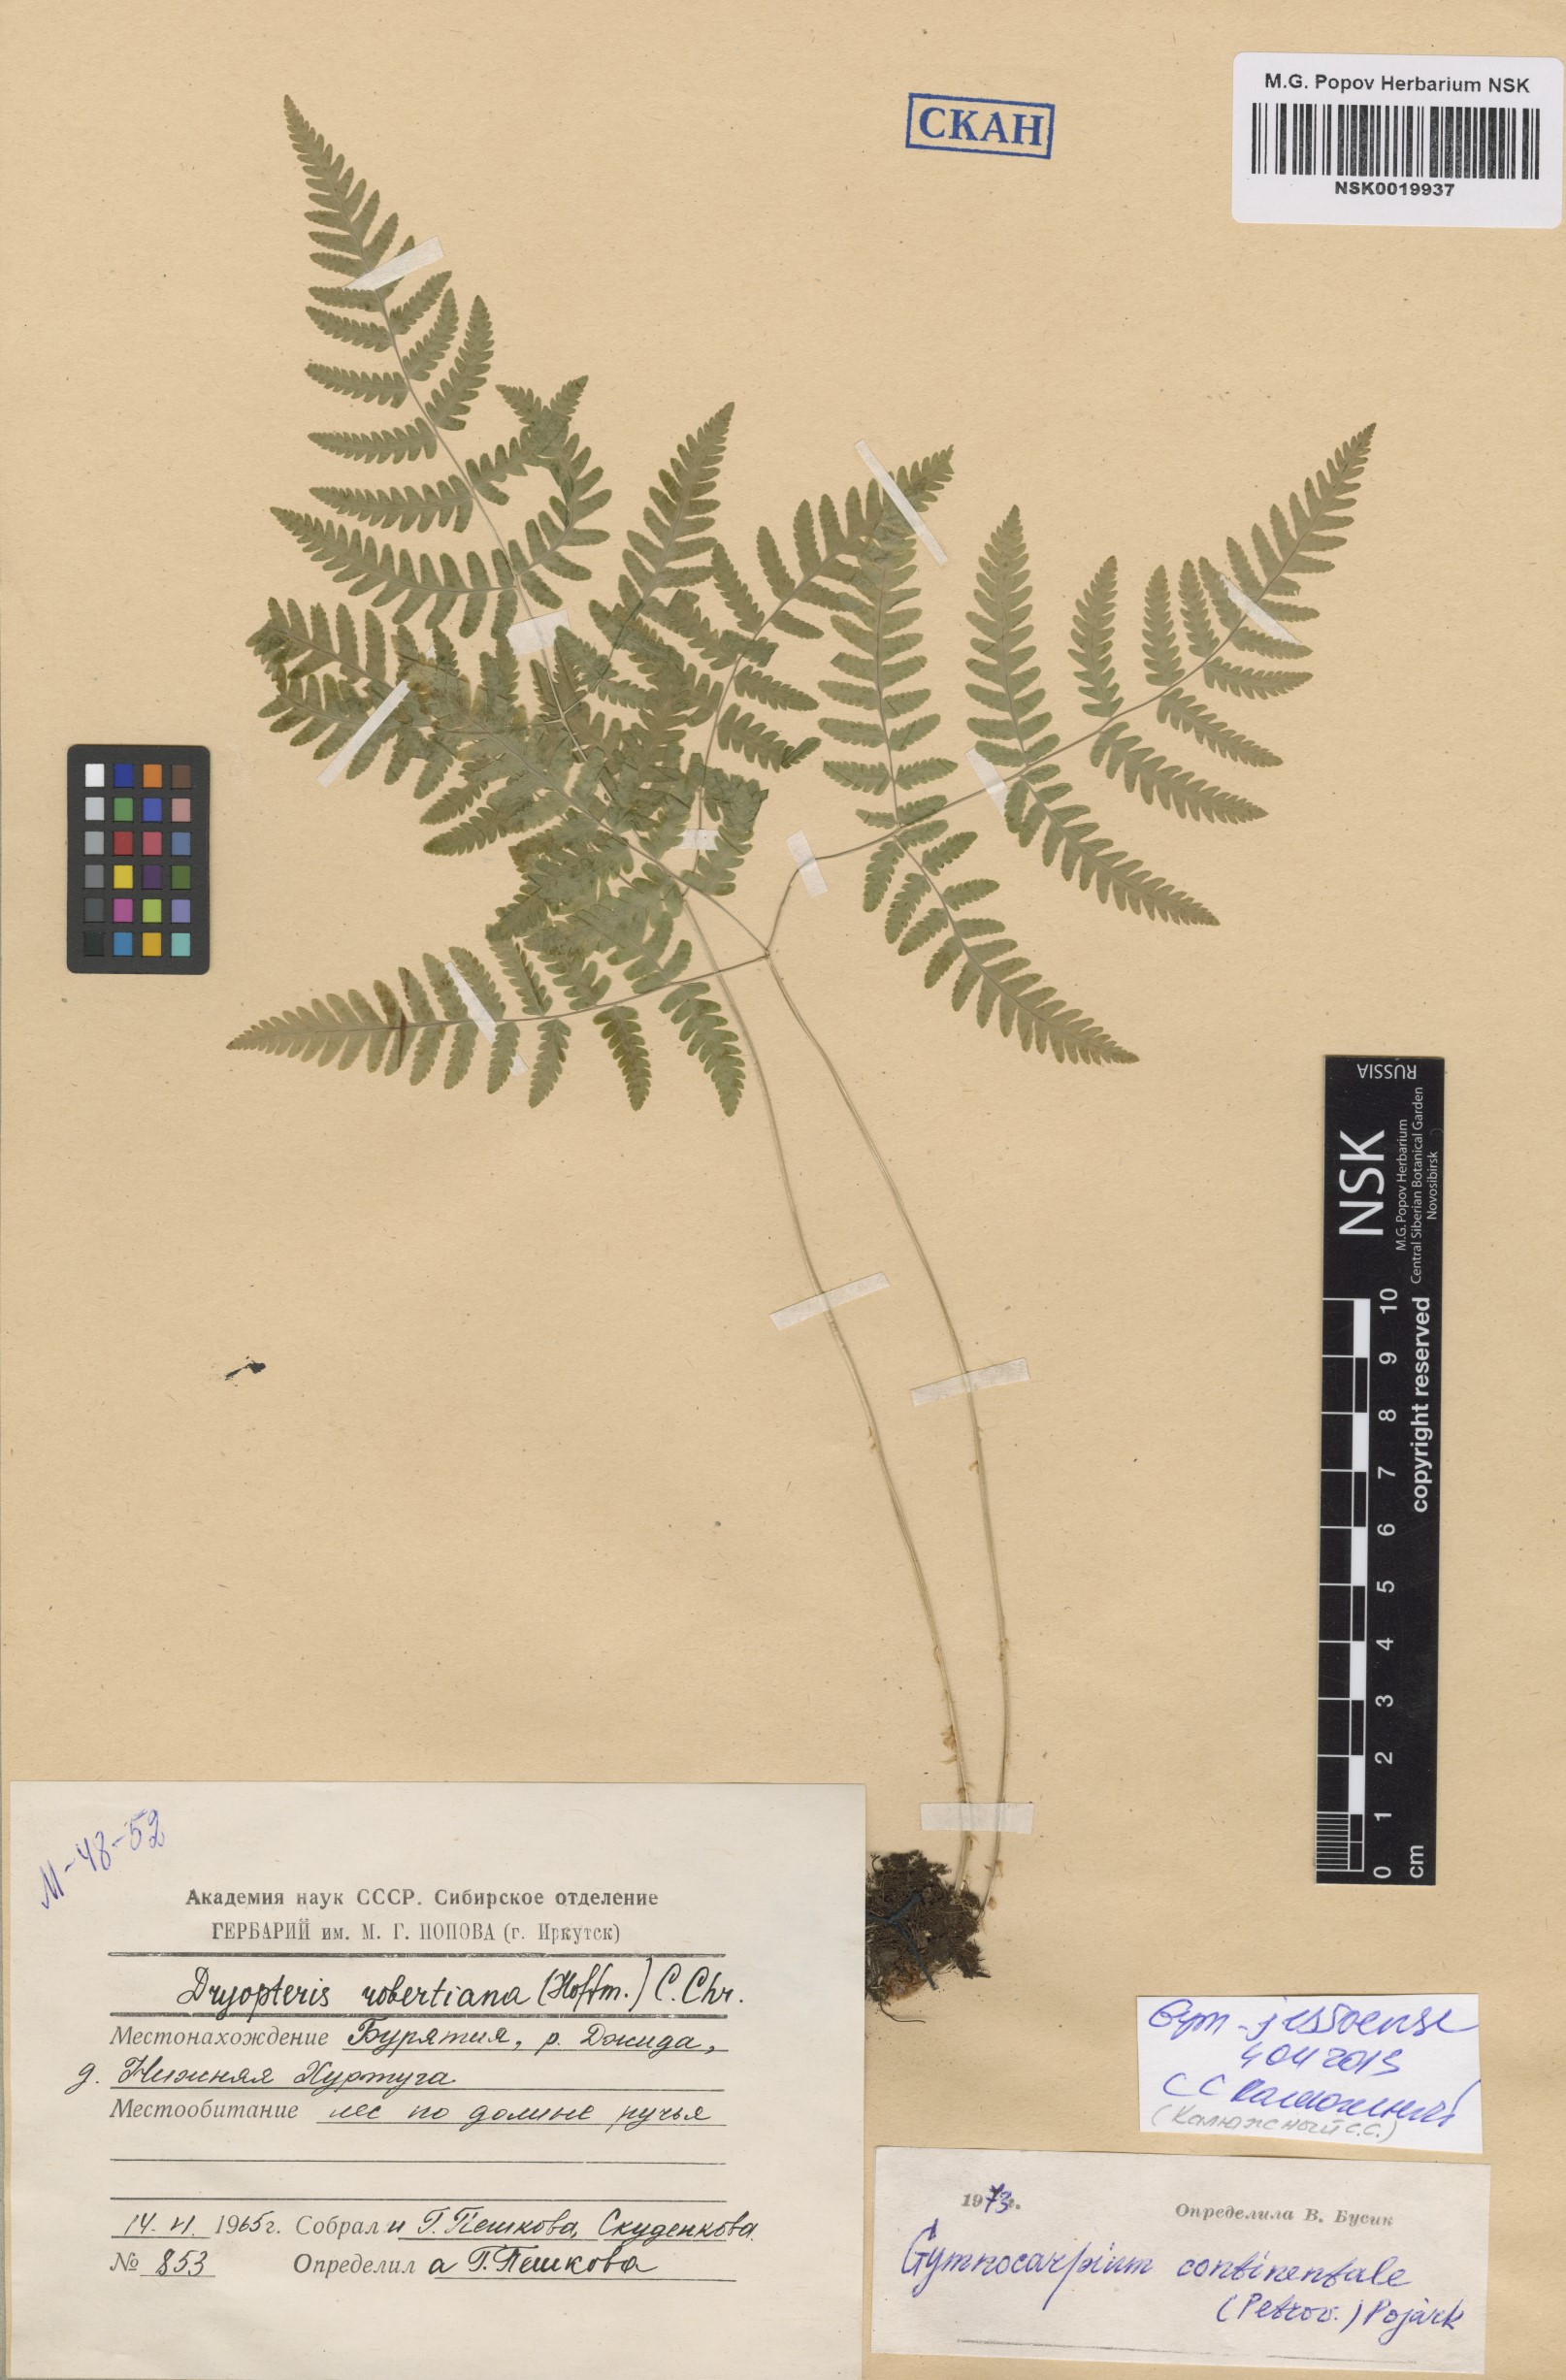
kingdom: Plantae
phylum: Tracheophyta
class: Polypodiopsida
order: Polypodiales
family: Cystopteridaceae
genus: Gymnocarpium
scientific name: Gymnocarpium jessoense
